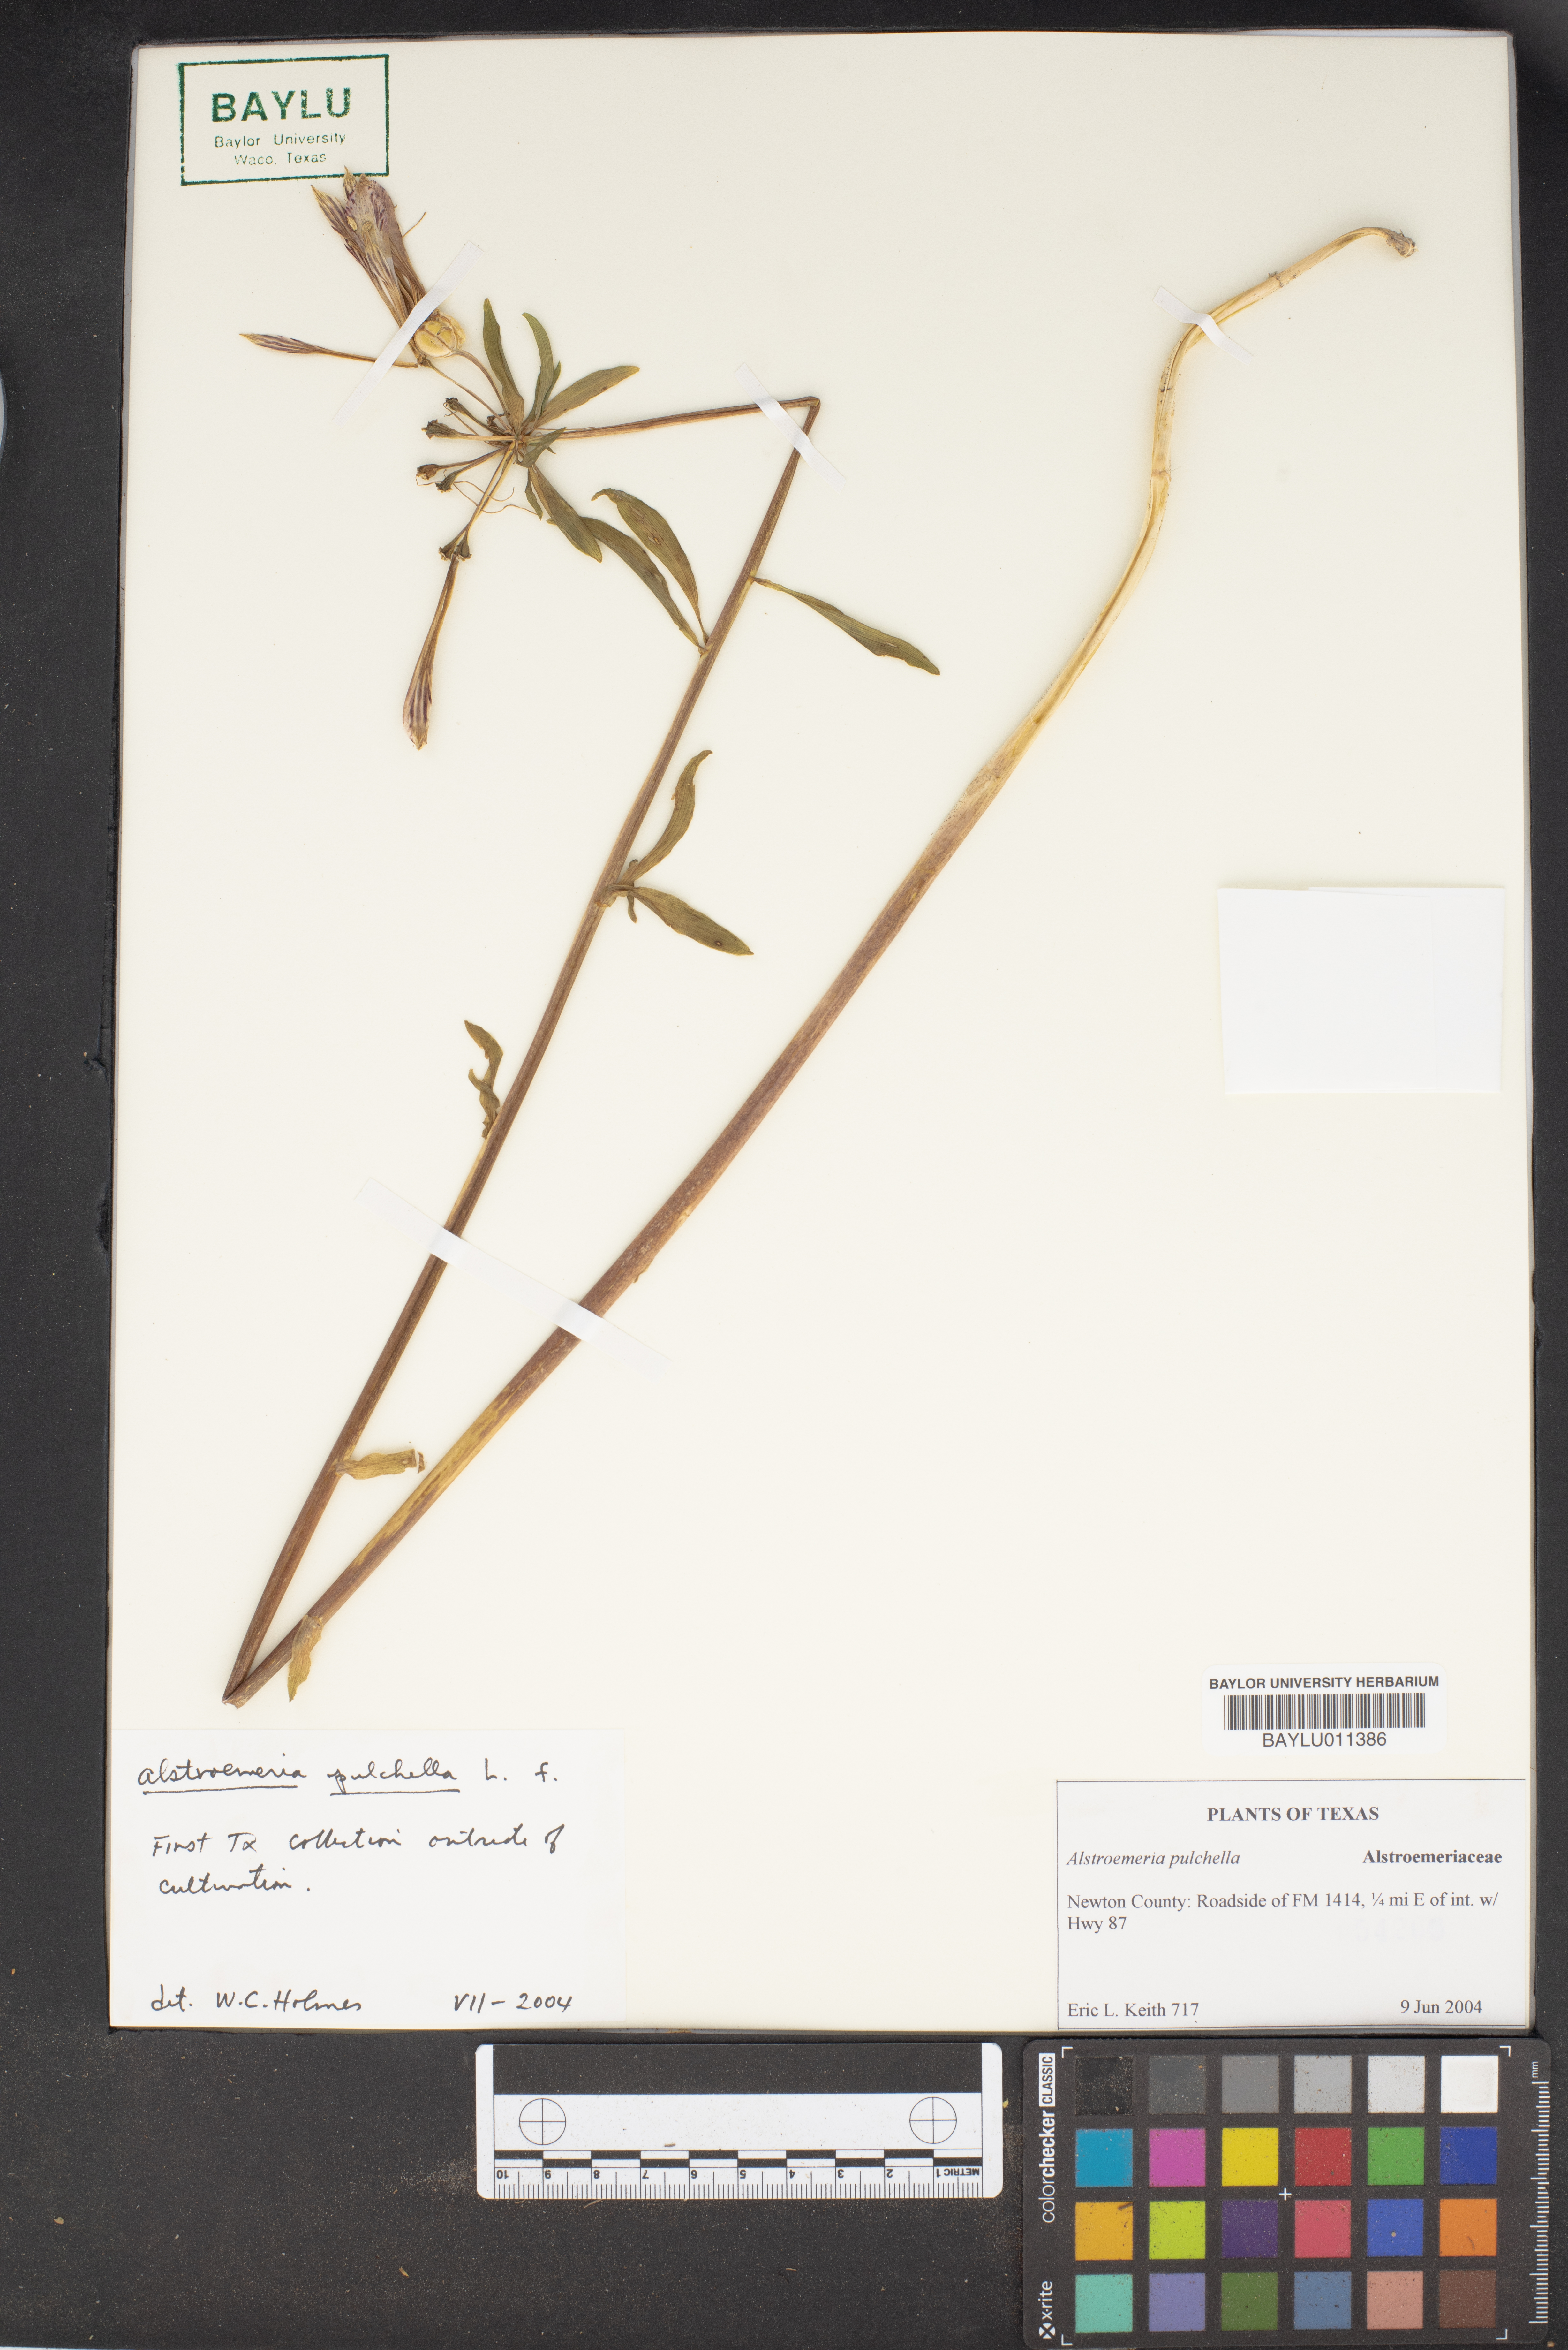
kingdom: Plantae
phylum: Tracheophyta
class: Liliopsida
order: Liliales
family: Alstroemeriaceae
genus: Alstroemeria
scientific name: Alstroemeria pelegrina
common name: Peruvian-lily
